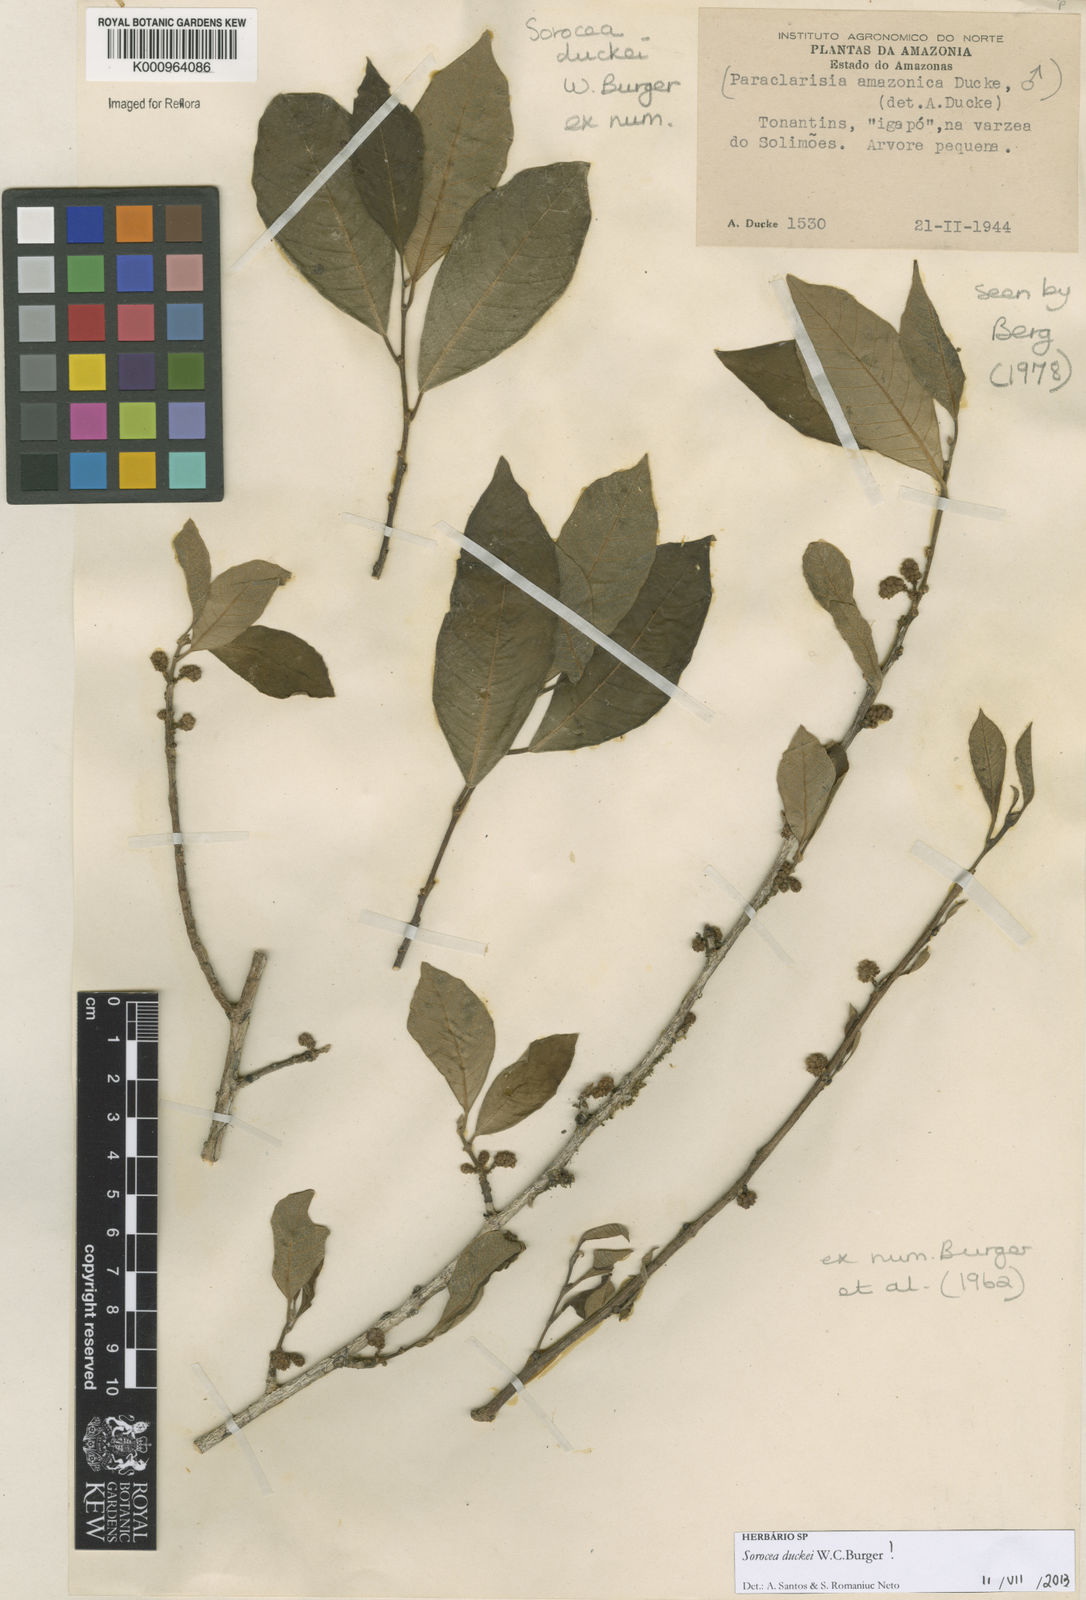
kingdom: Plantae
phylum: Tracheophyta
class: Magnoliopsida
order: Rosales
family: Moraceae
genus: Sorocea
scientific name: Sorocea duckei
